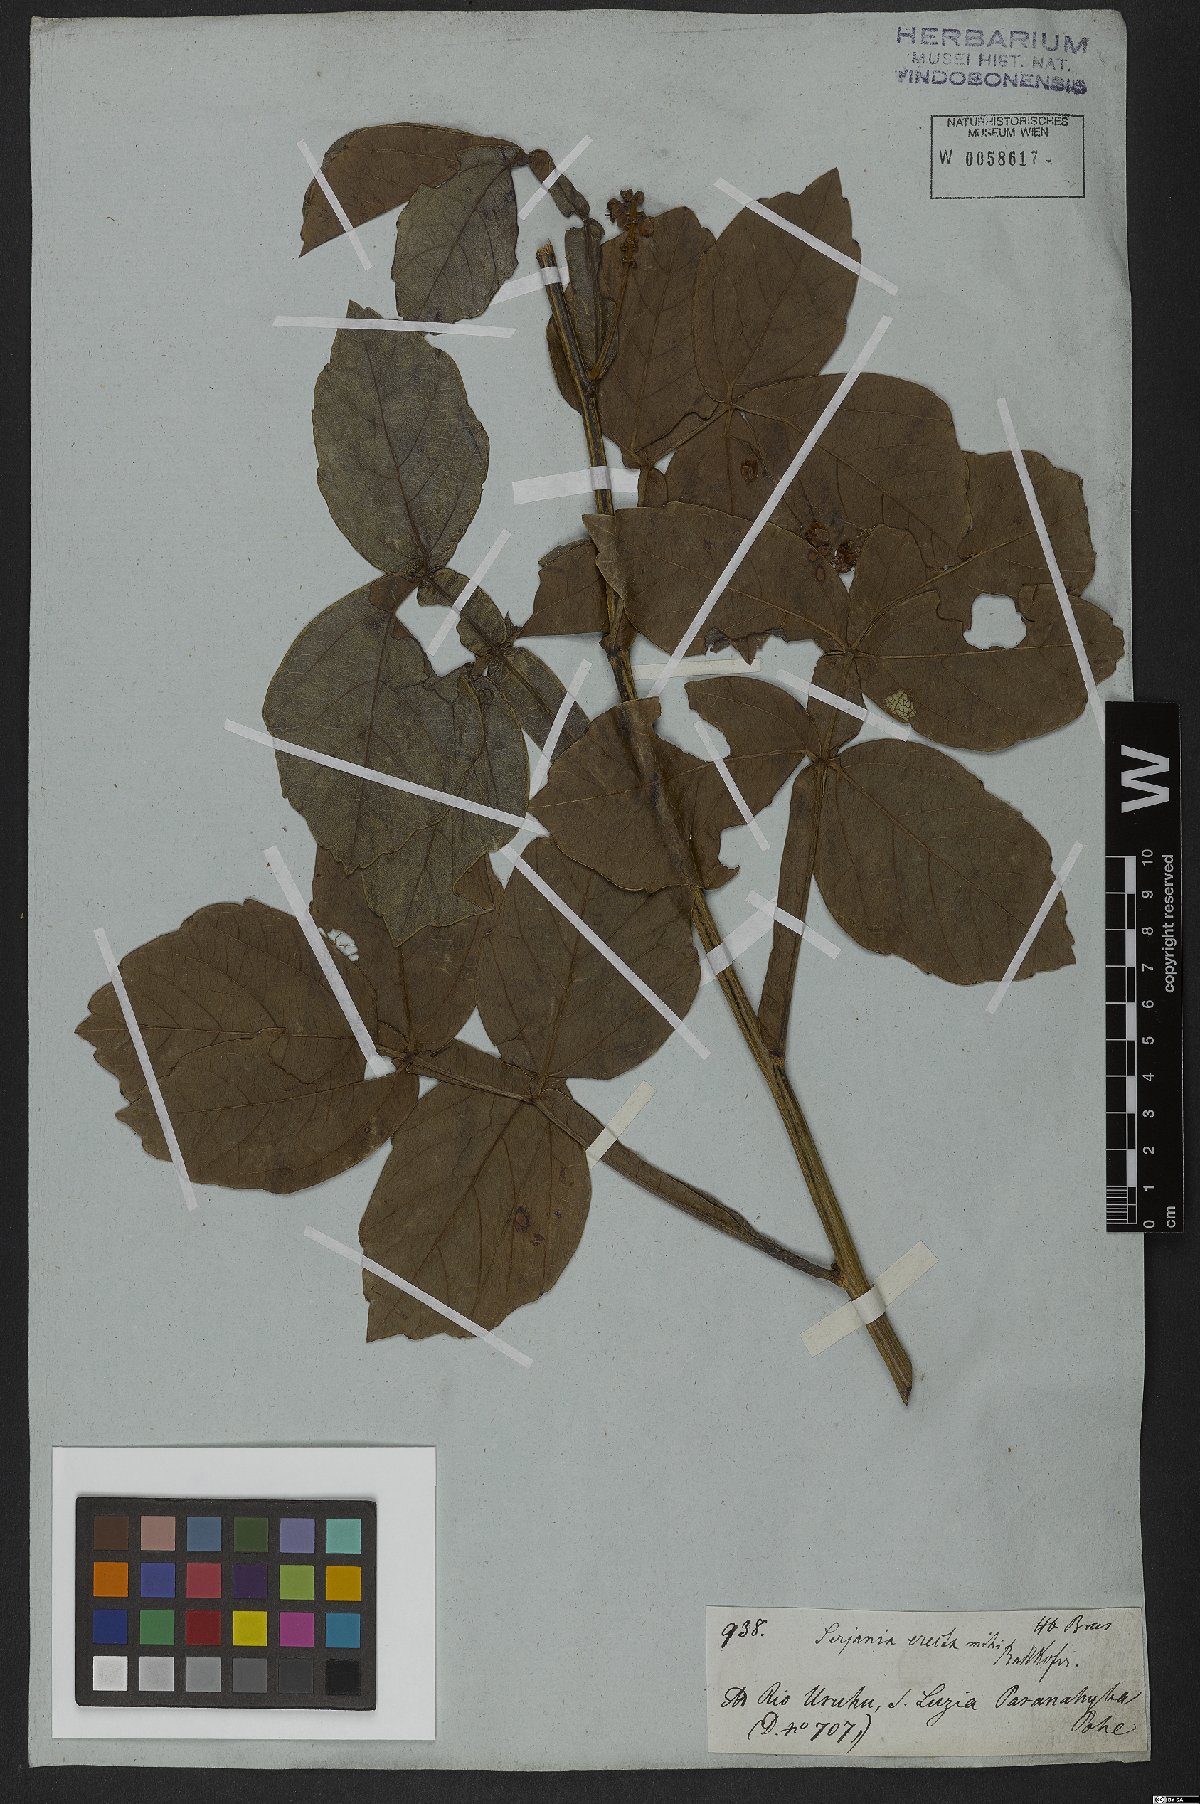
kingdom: Plantae
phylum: Tracheophyta
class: Magnoliopsida
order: Sapindales
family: Sapindaceae
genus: Serjania
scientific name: Serjania erecta
